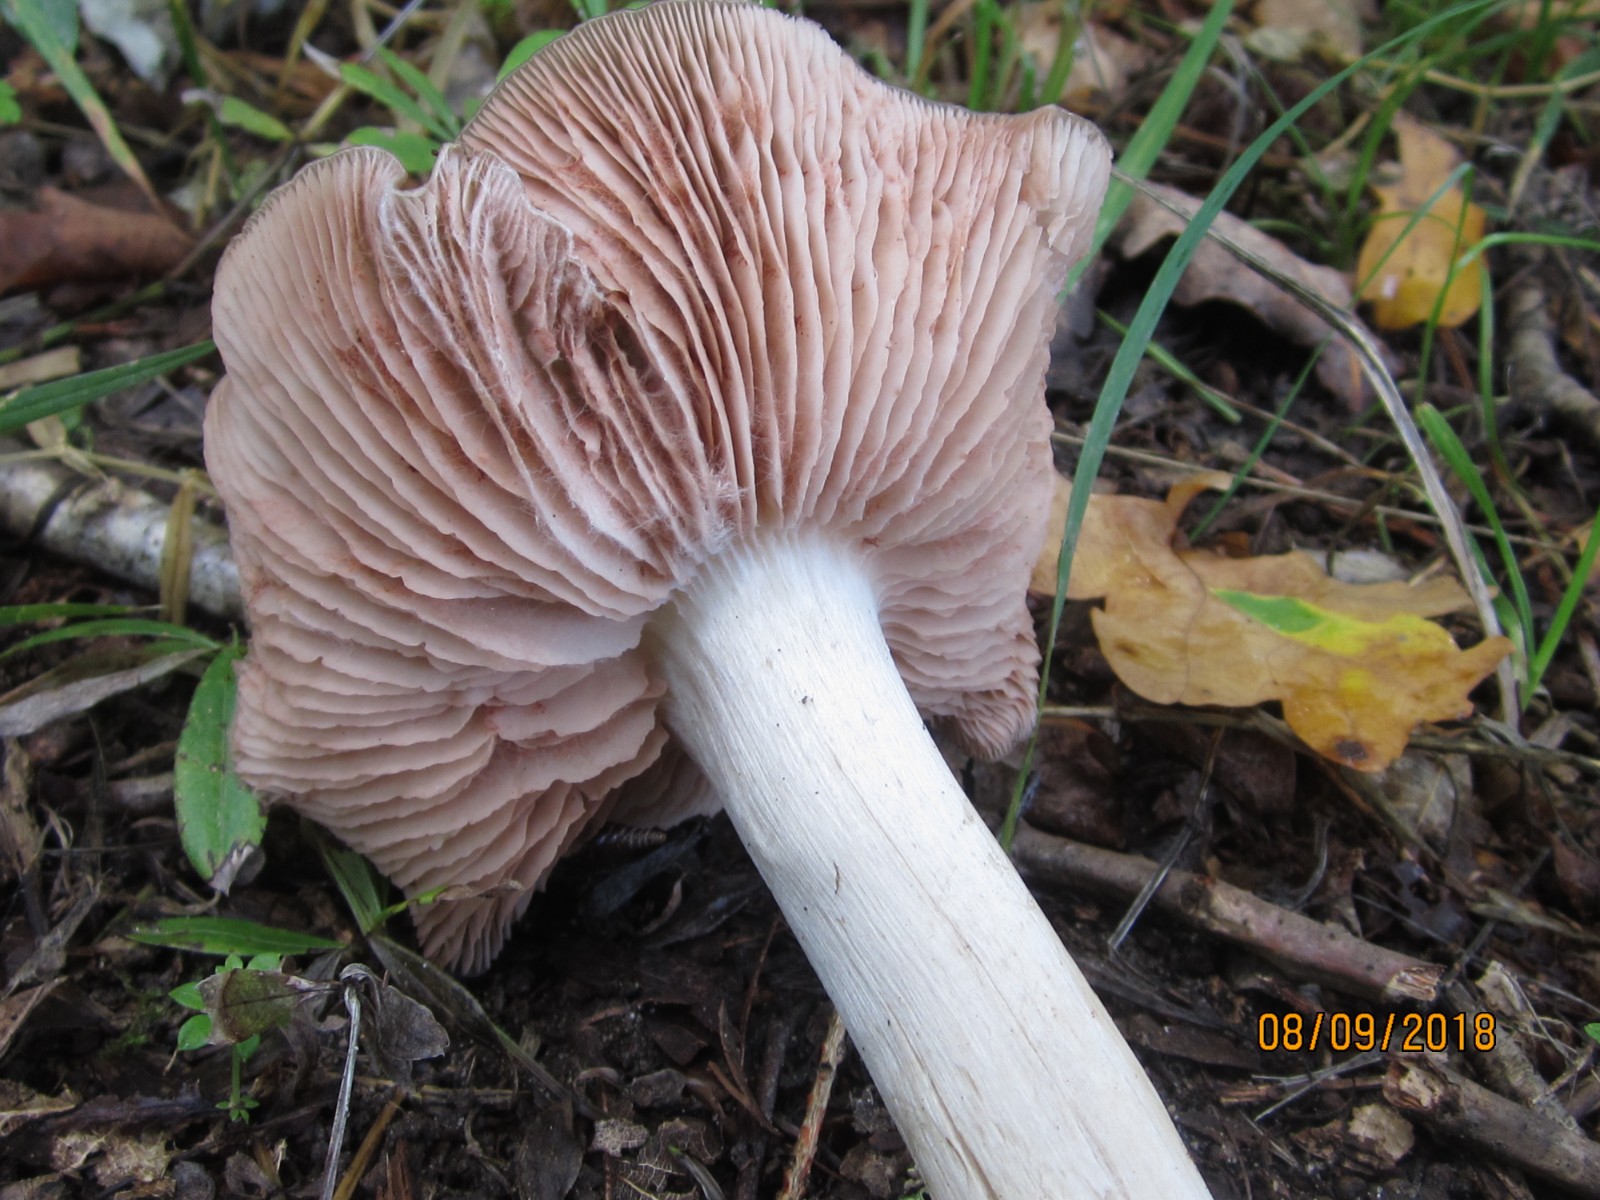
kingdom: Fungi
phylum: Basidiomycota
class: Agaricomycetes
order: Agaricales
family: Entolomataceae
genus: Entoloma
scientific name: Entoloma
